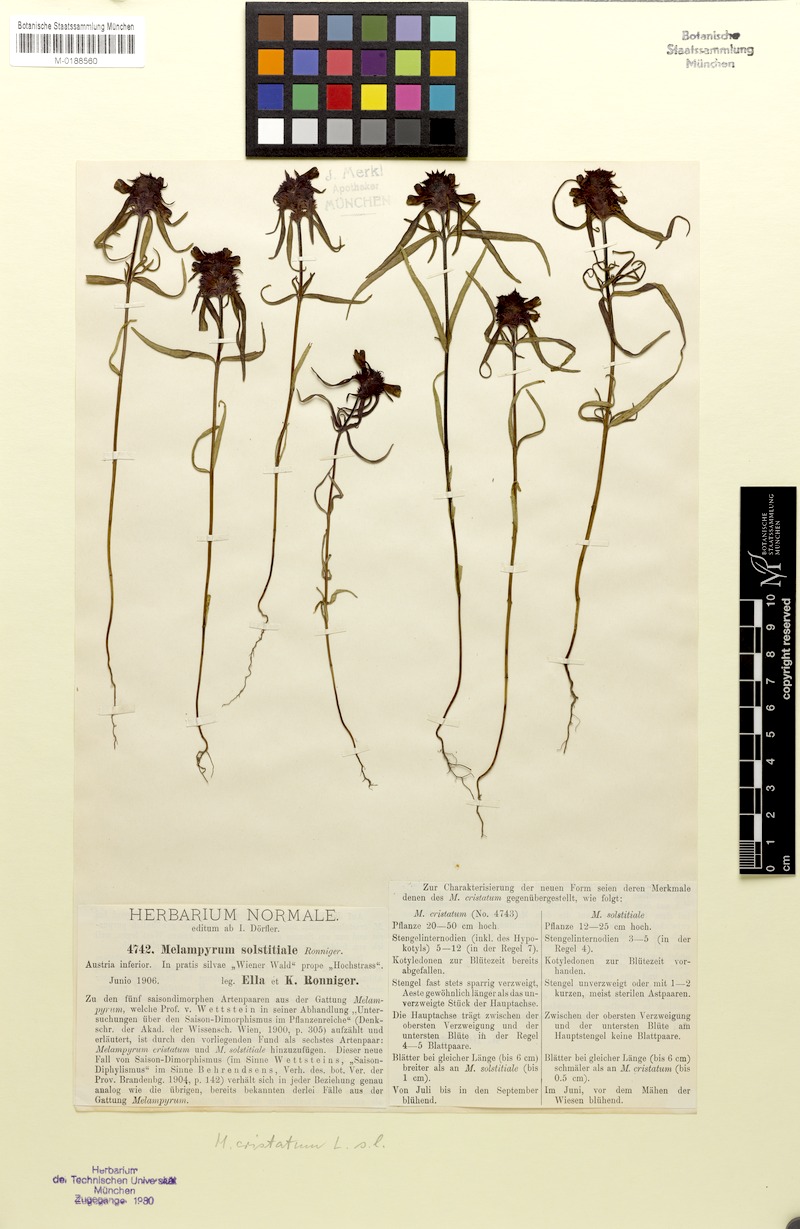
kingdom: Plantae
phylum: Tracheophyta
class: Magnoliopsida
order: Lamiales
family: Orobanchaceae
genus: Melampyrum
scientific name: Melampyrum cristatum
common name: Crested cow-wheat
